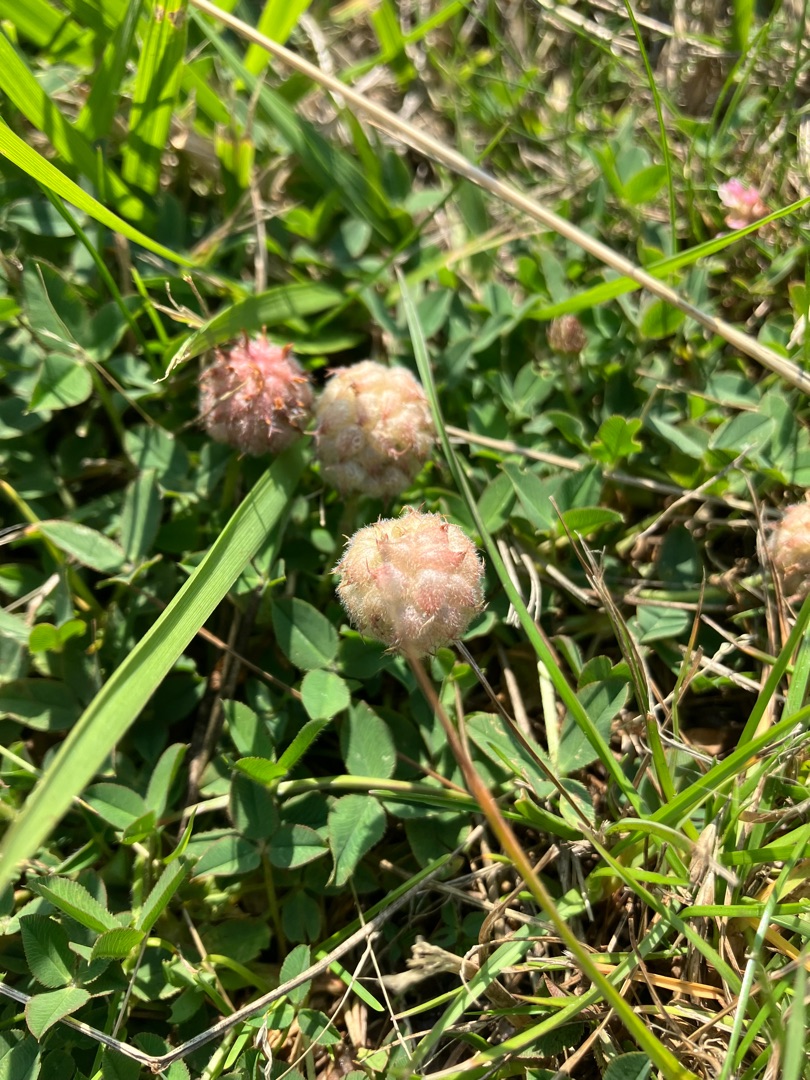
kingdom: Plantae
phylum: Tracheophyta
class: Magnoliopsida
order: Fabales
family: Fabaceae
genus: Trifolium
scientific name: Trifolium fragiferum
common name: Jordbær-kløver
